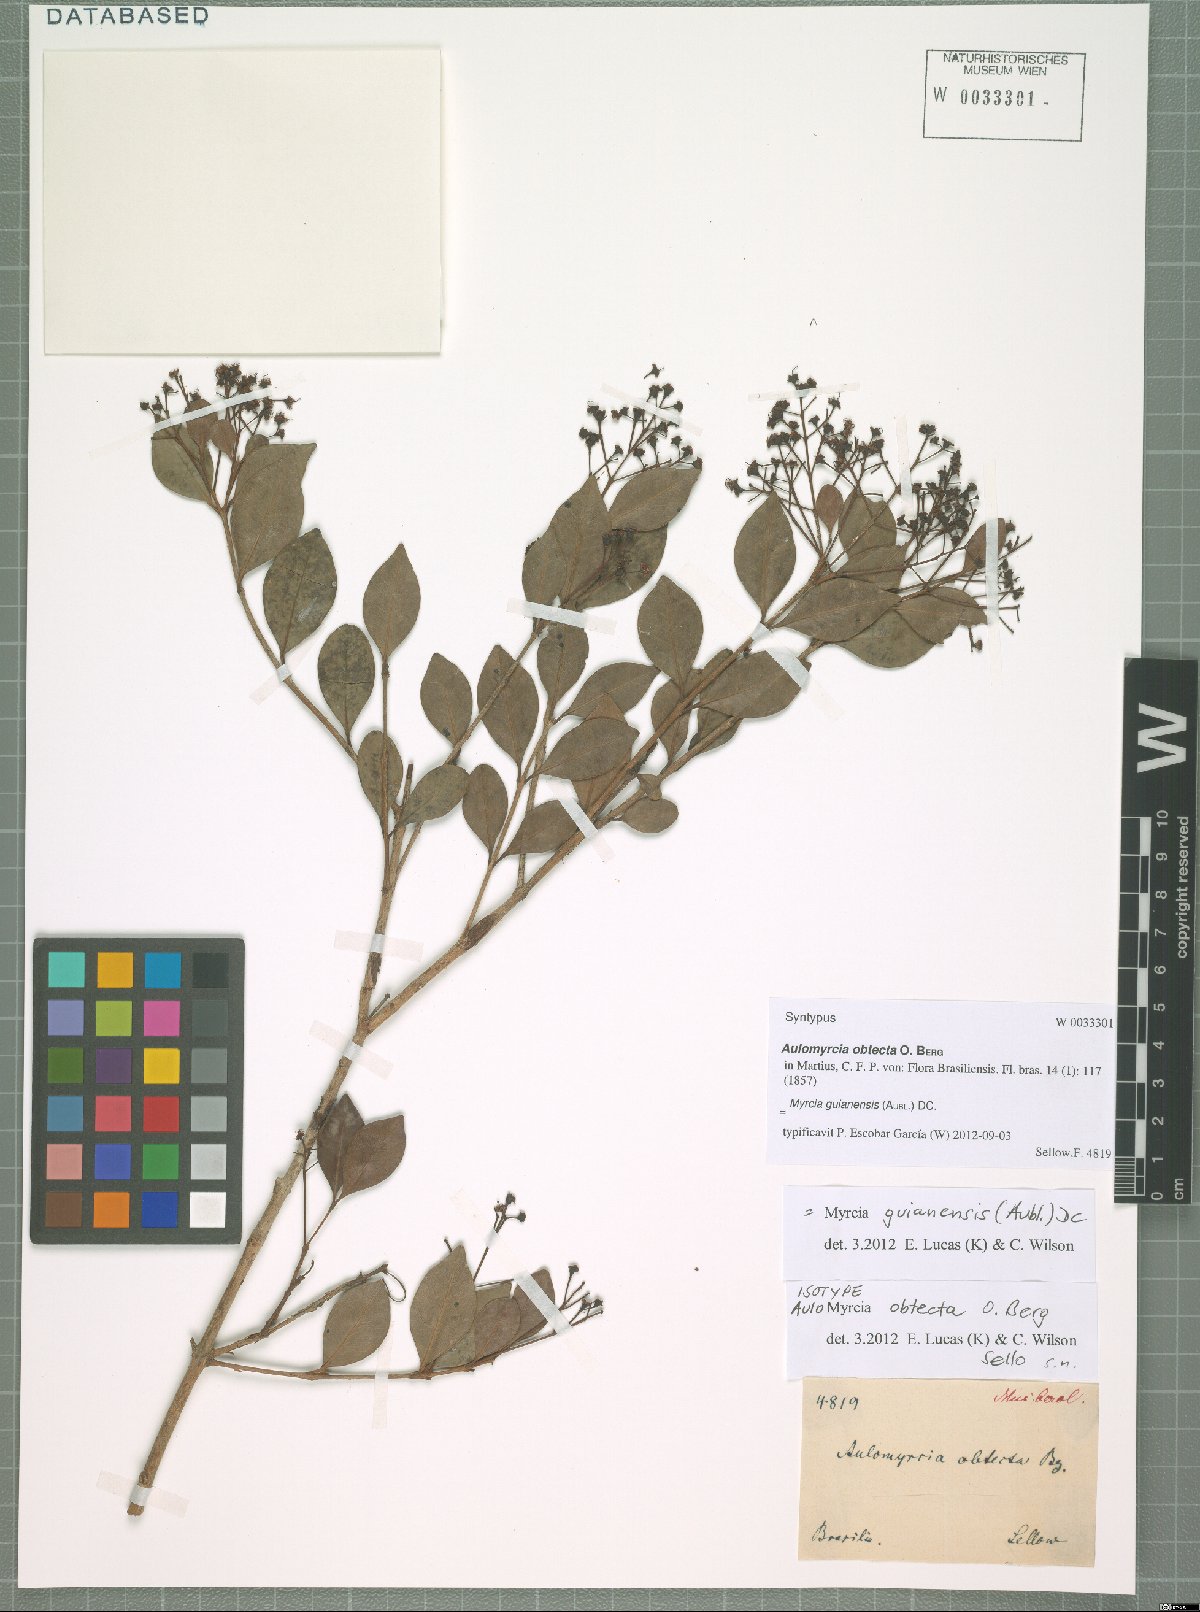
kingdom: Plantae
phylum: Tracheophyta
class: Magnoliopsida
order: Myrtales
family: Myrtaceae
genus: Myrcia
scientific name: Myrcia guianensis
